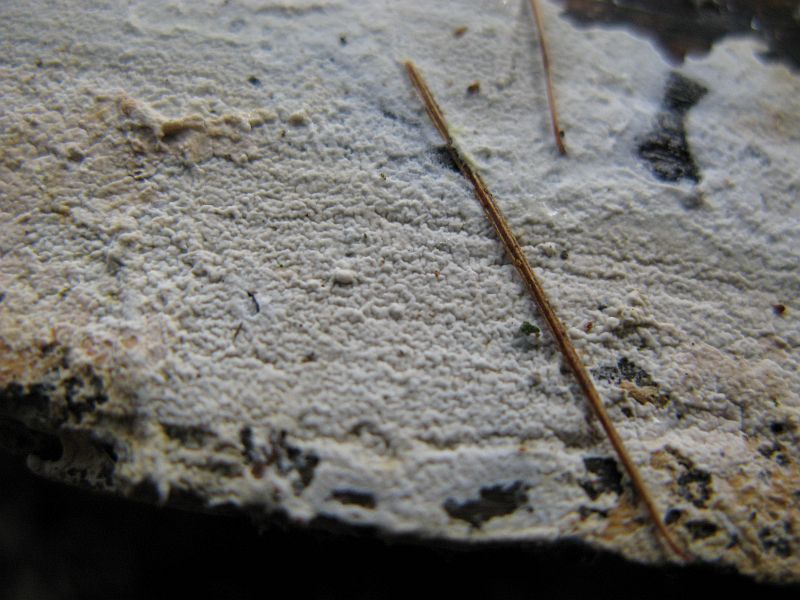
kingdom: Fungi
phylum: Basidiomycota
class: Agaricomycetes
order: Atheliales
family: Atheliaceae
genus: Leptosporomyces
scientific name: Leptosporomyces fuscostratus
